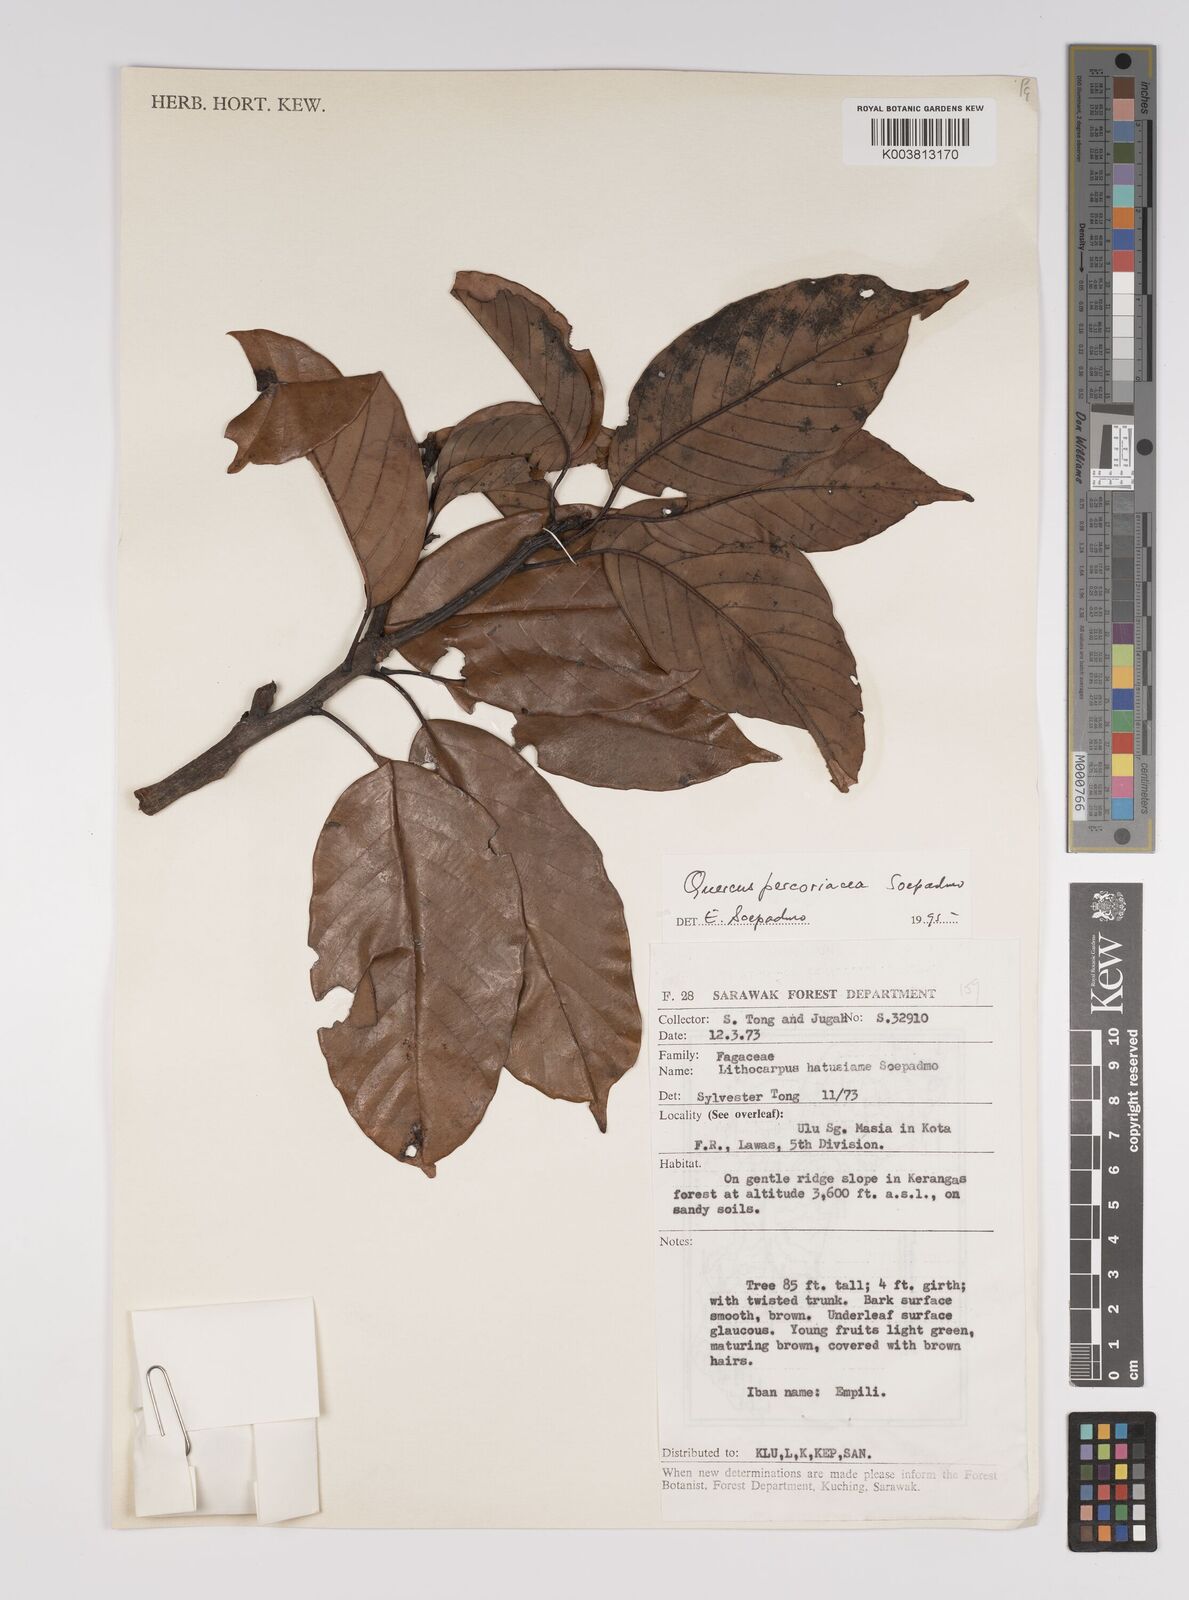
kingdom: Plantae
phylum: Tracheophyta
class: Magnoliopsida
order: Fagales
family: Fagaceae
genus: Quercus
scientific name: Quercus percoriacea
